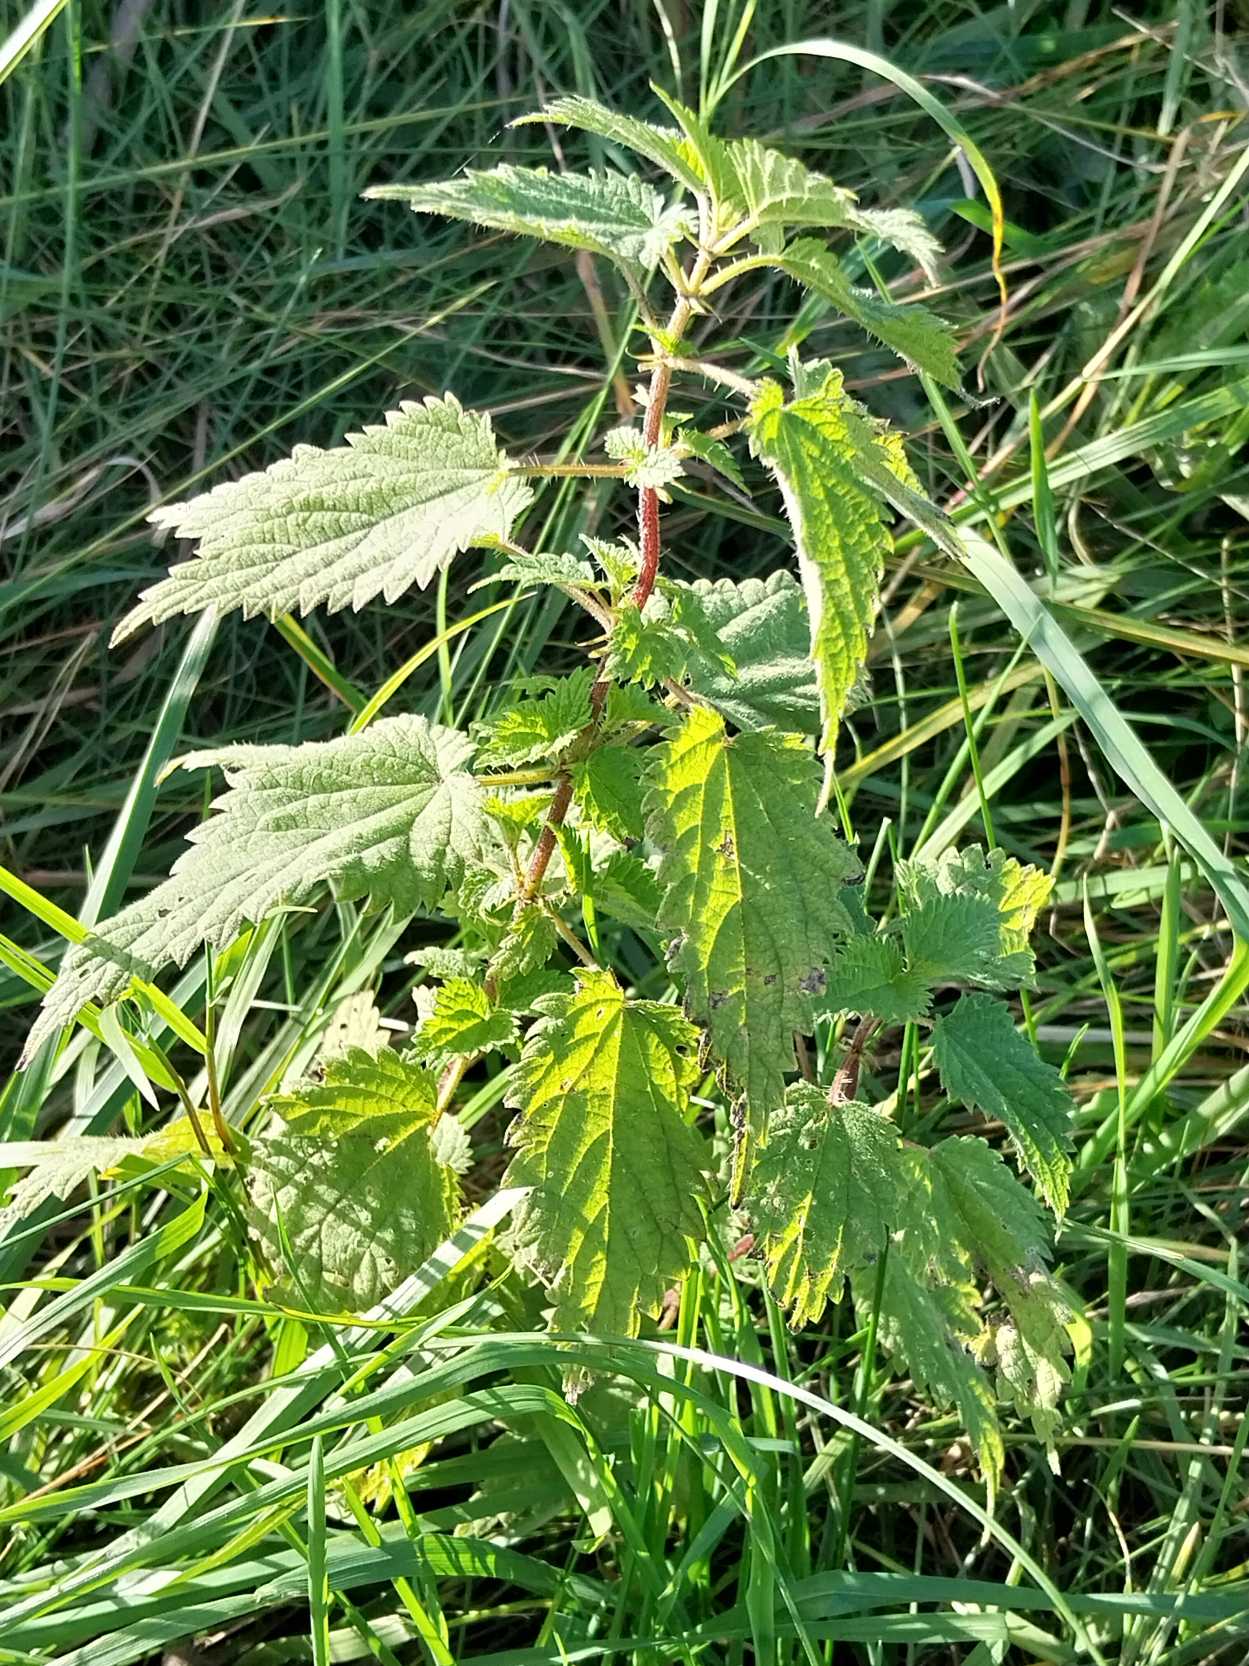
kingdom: Plantae
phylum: Tracheophyta
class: Magnoliopsida
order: Rosales
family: Urticaceae
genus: Urtica
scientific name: Urtica dioica
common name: Stor nælde
